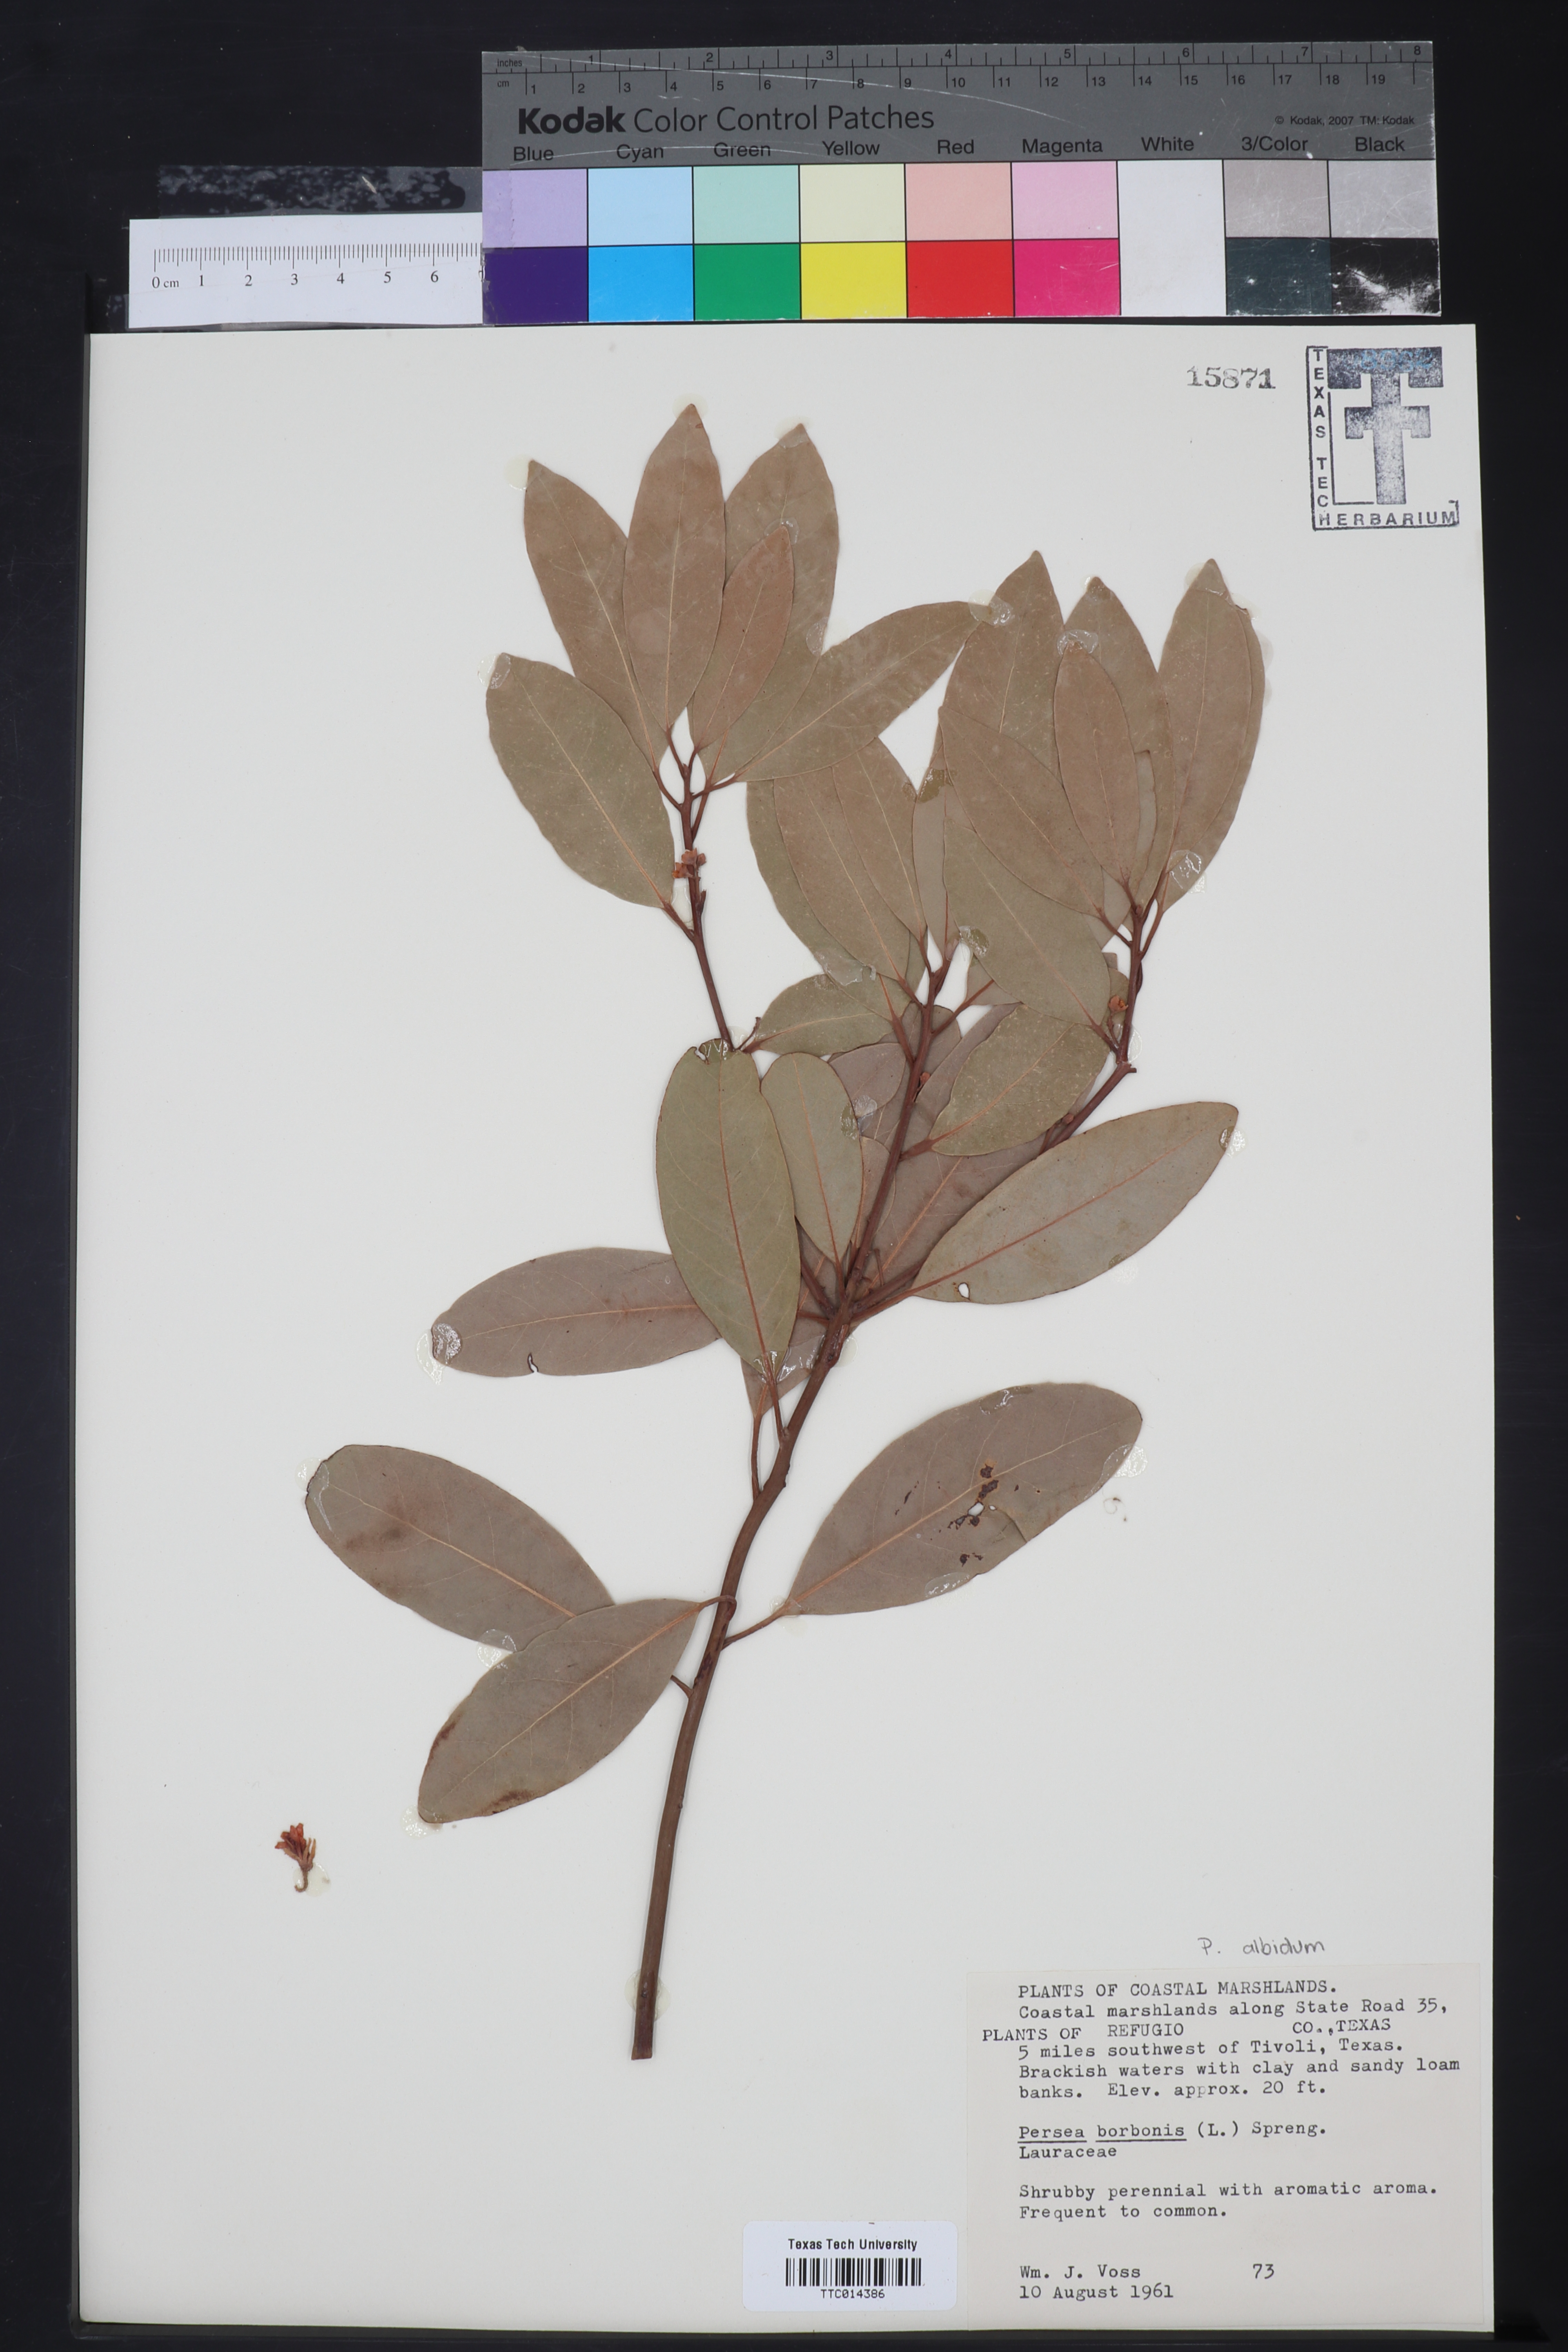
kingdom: Plantae
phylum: Tracheophyta
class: Magnoliopsida
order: Laurales
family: Lauraceae
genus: Persea
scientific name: Persea borbonia
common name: Redbay
